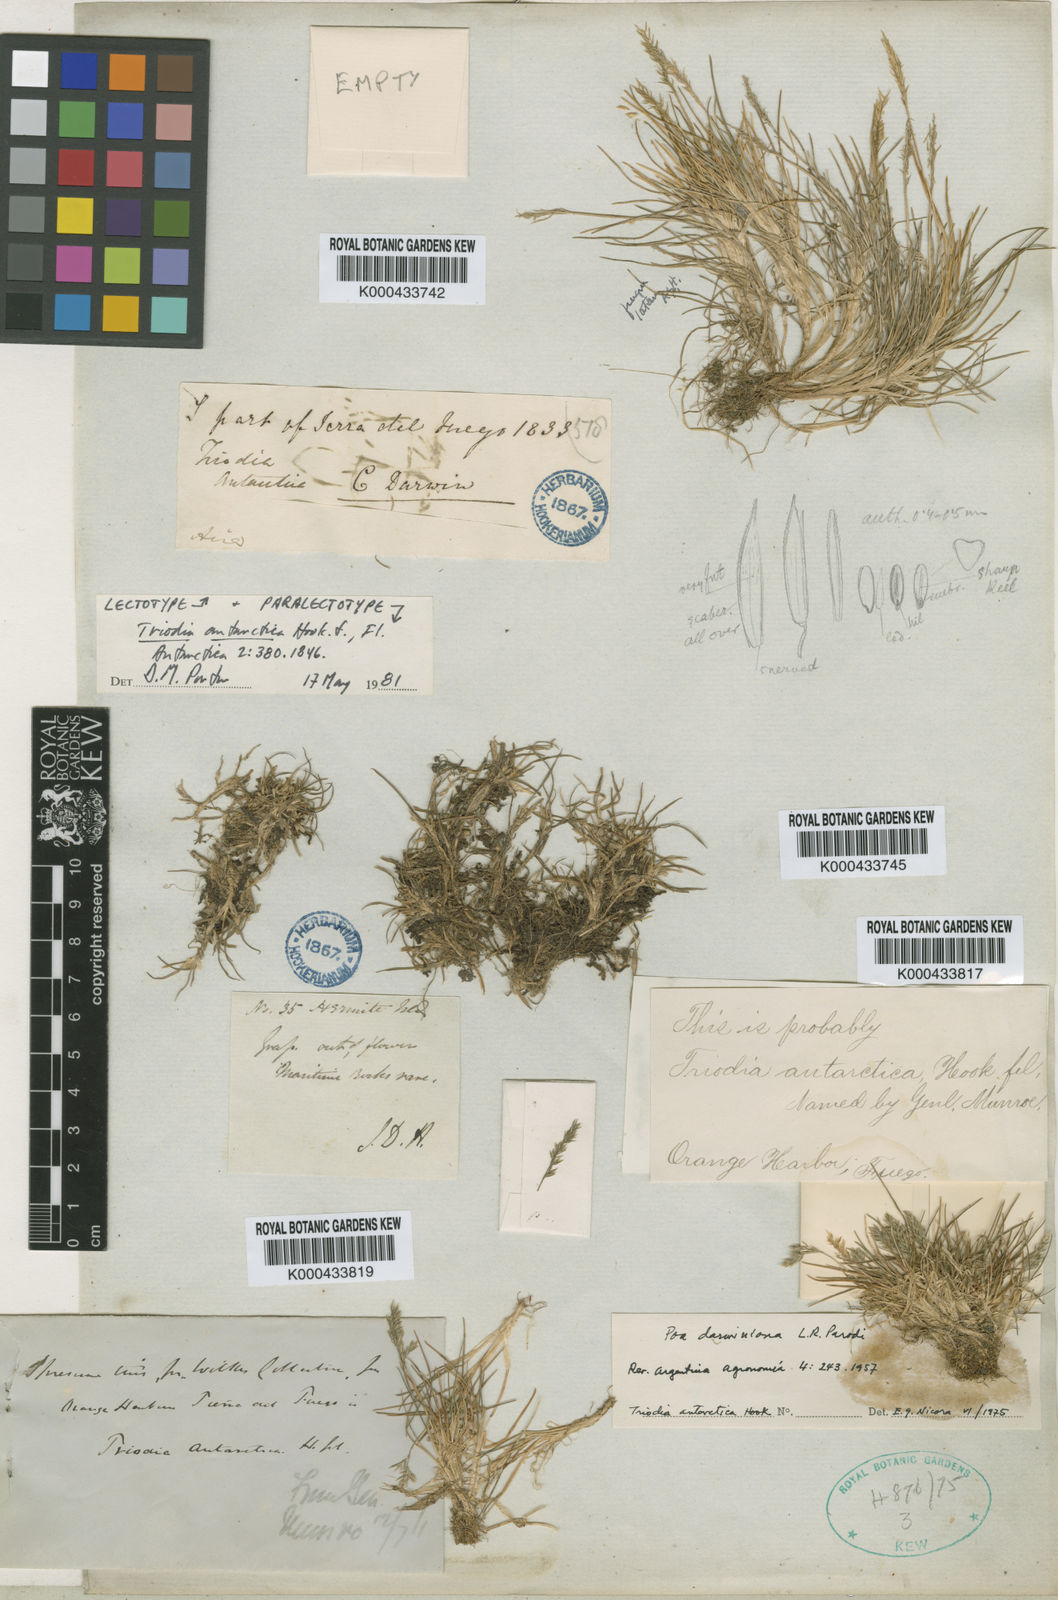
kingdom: Plantae
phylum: Tracheophyta
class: Liliopsida
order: Poales
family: Poaceae
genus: Poa
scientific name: Poa darwiniana
